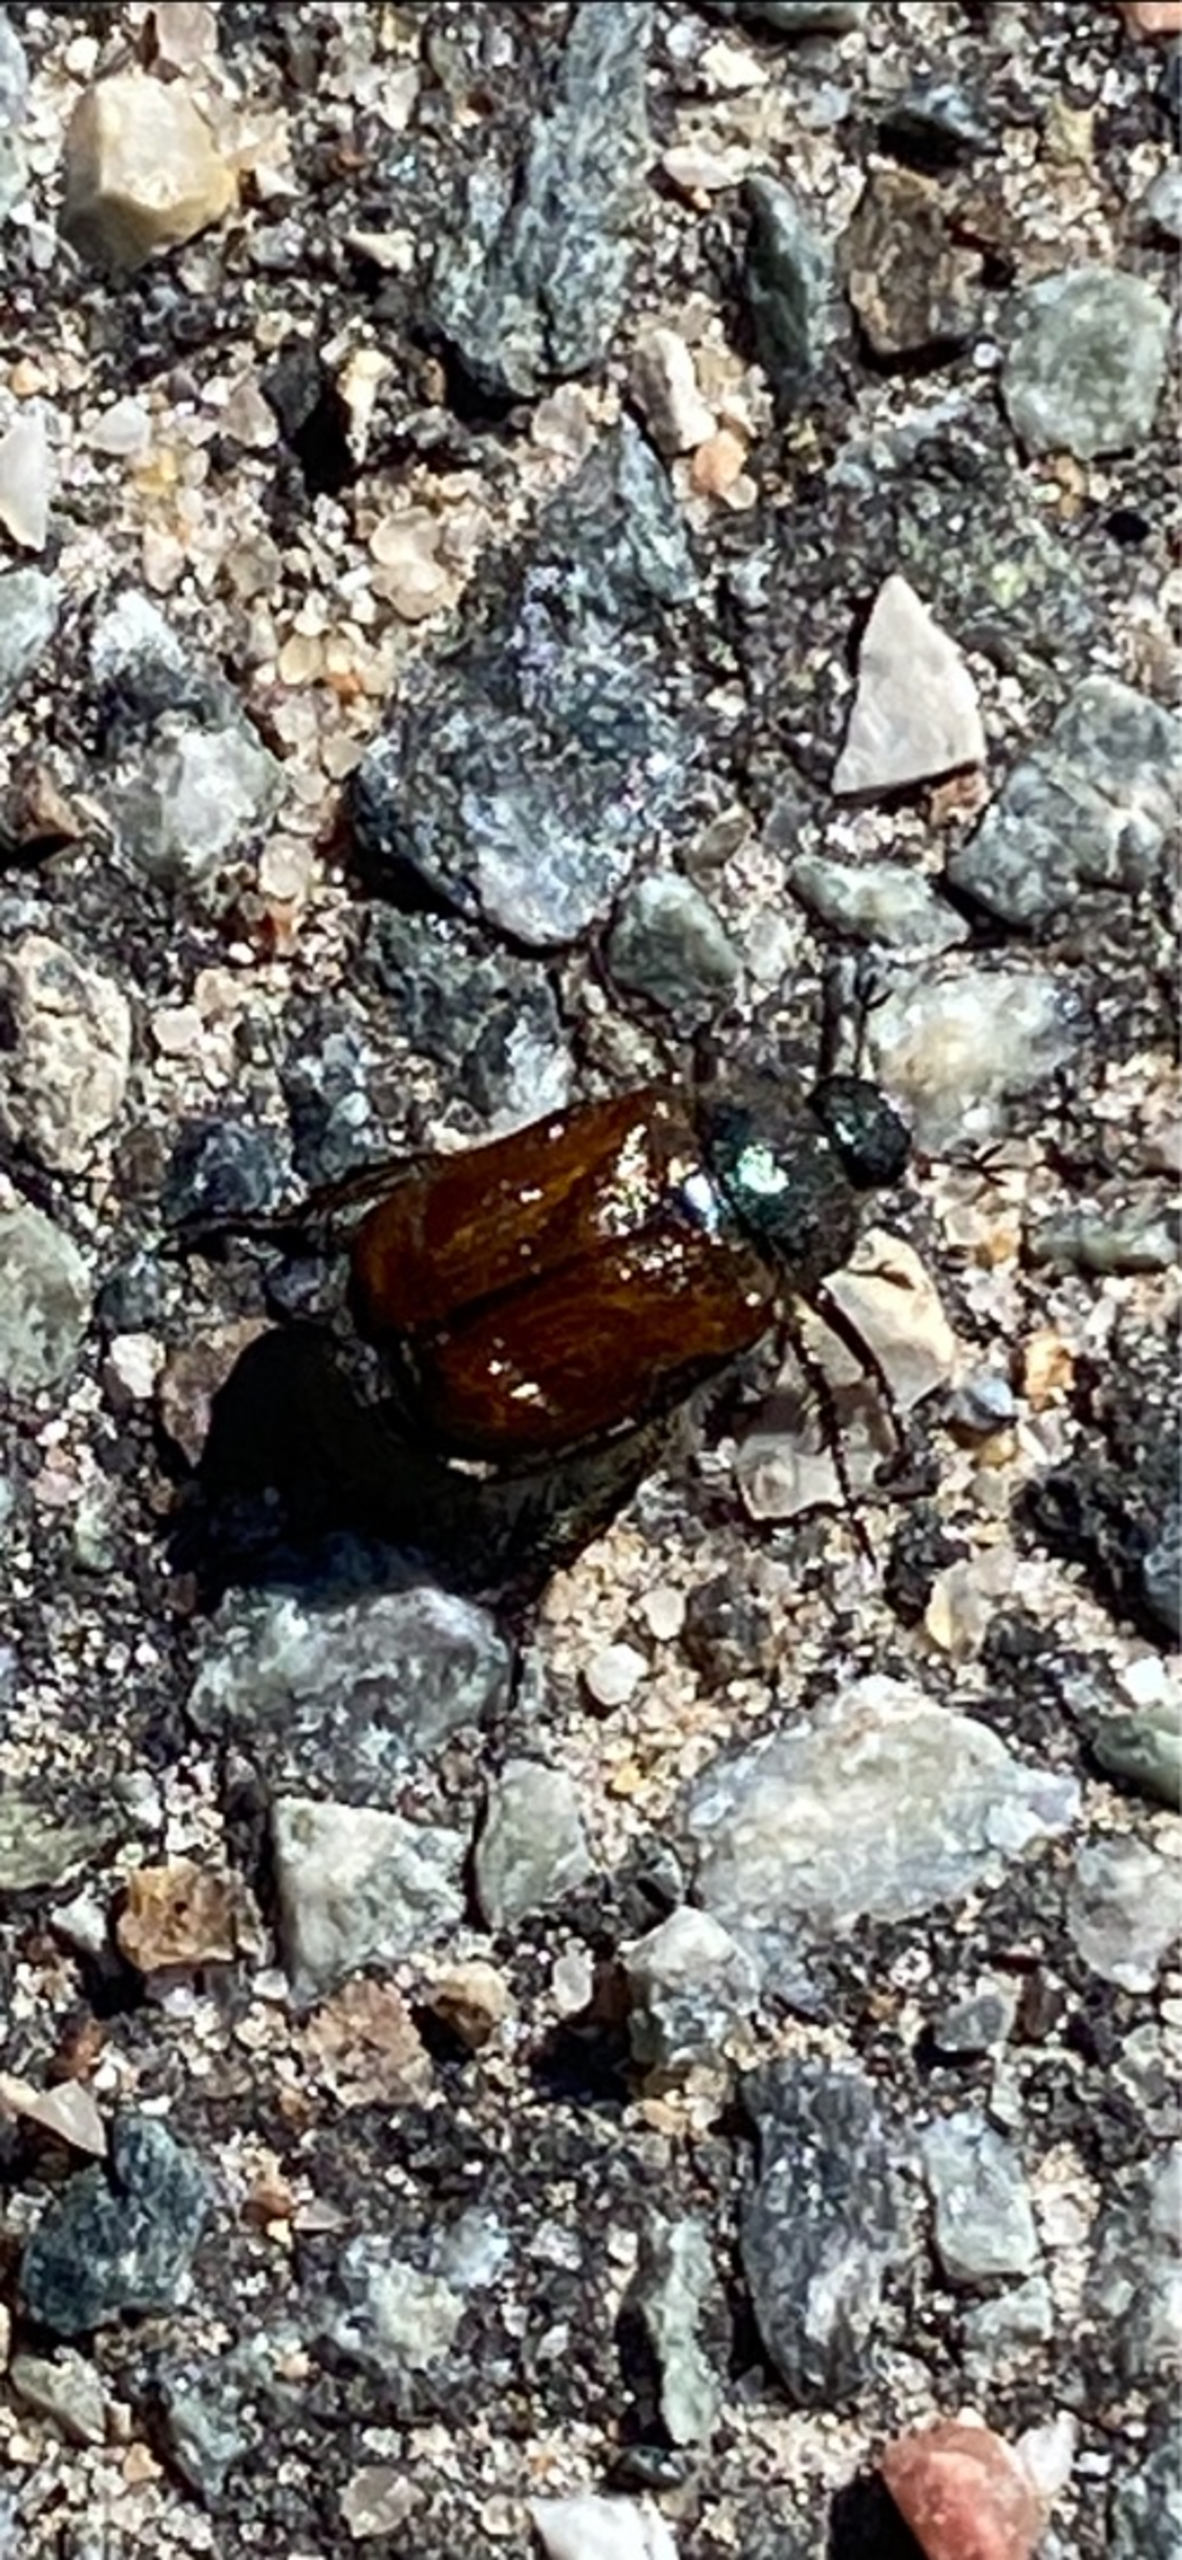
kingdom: Animalia
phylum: Arthropoda
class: Insecta
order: Coleoptera
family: Scarabaeidae
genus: Phyllopertha
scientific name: Phyllopertha horticola
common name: Gåsebille
